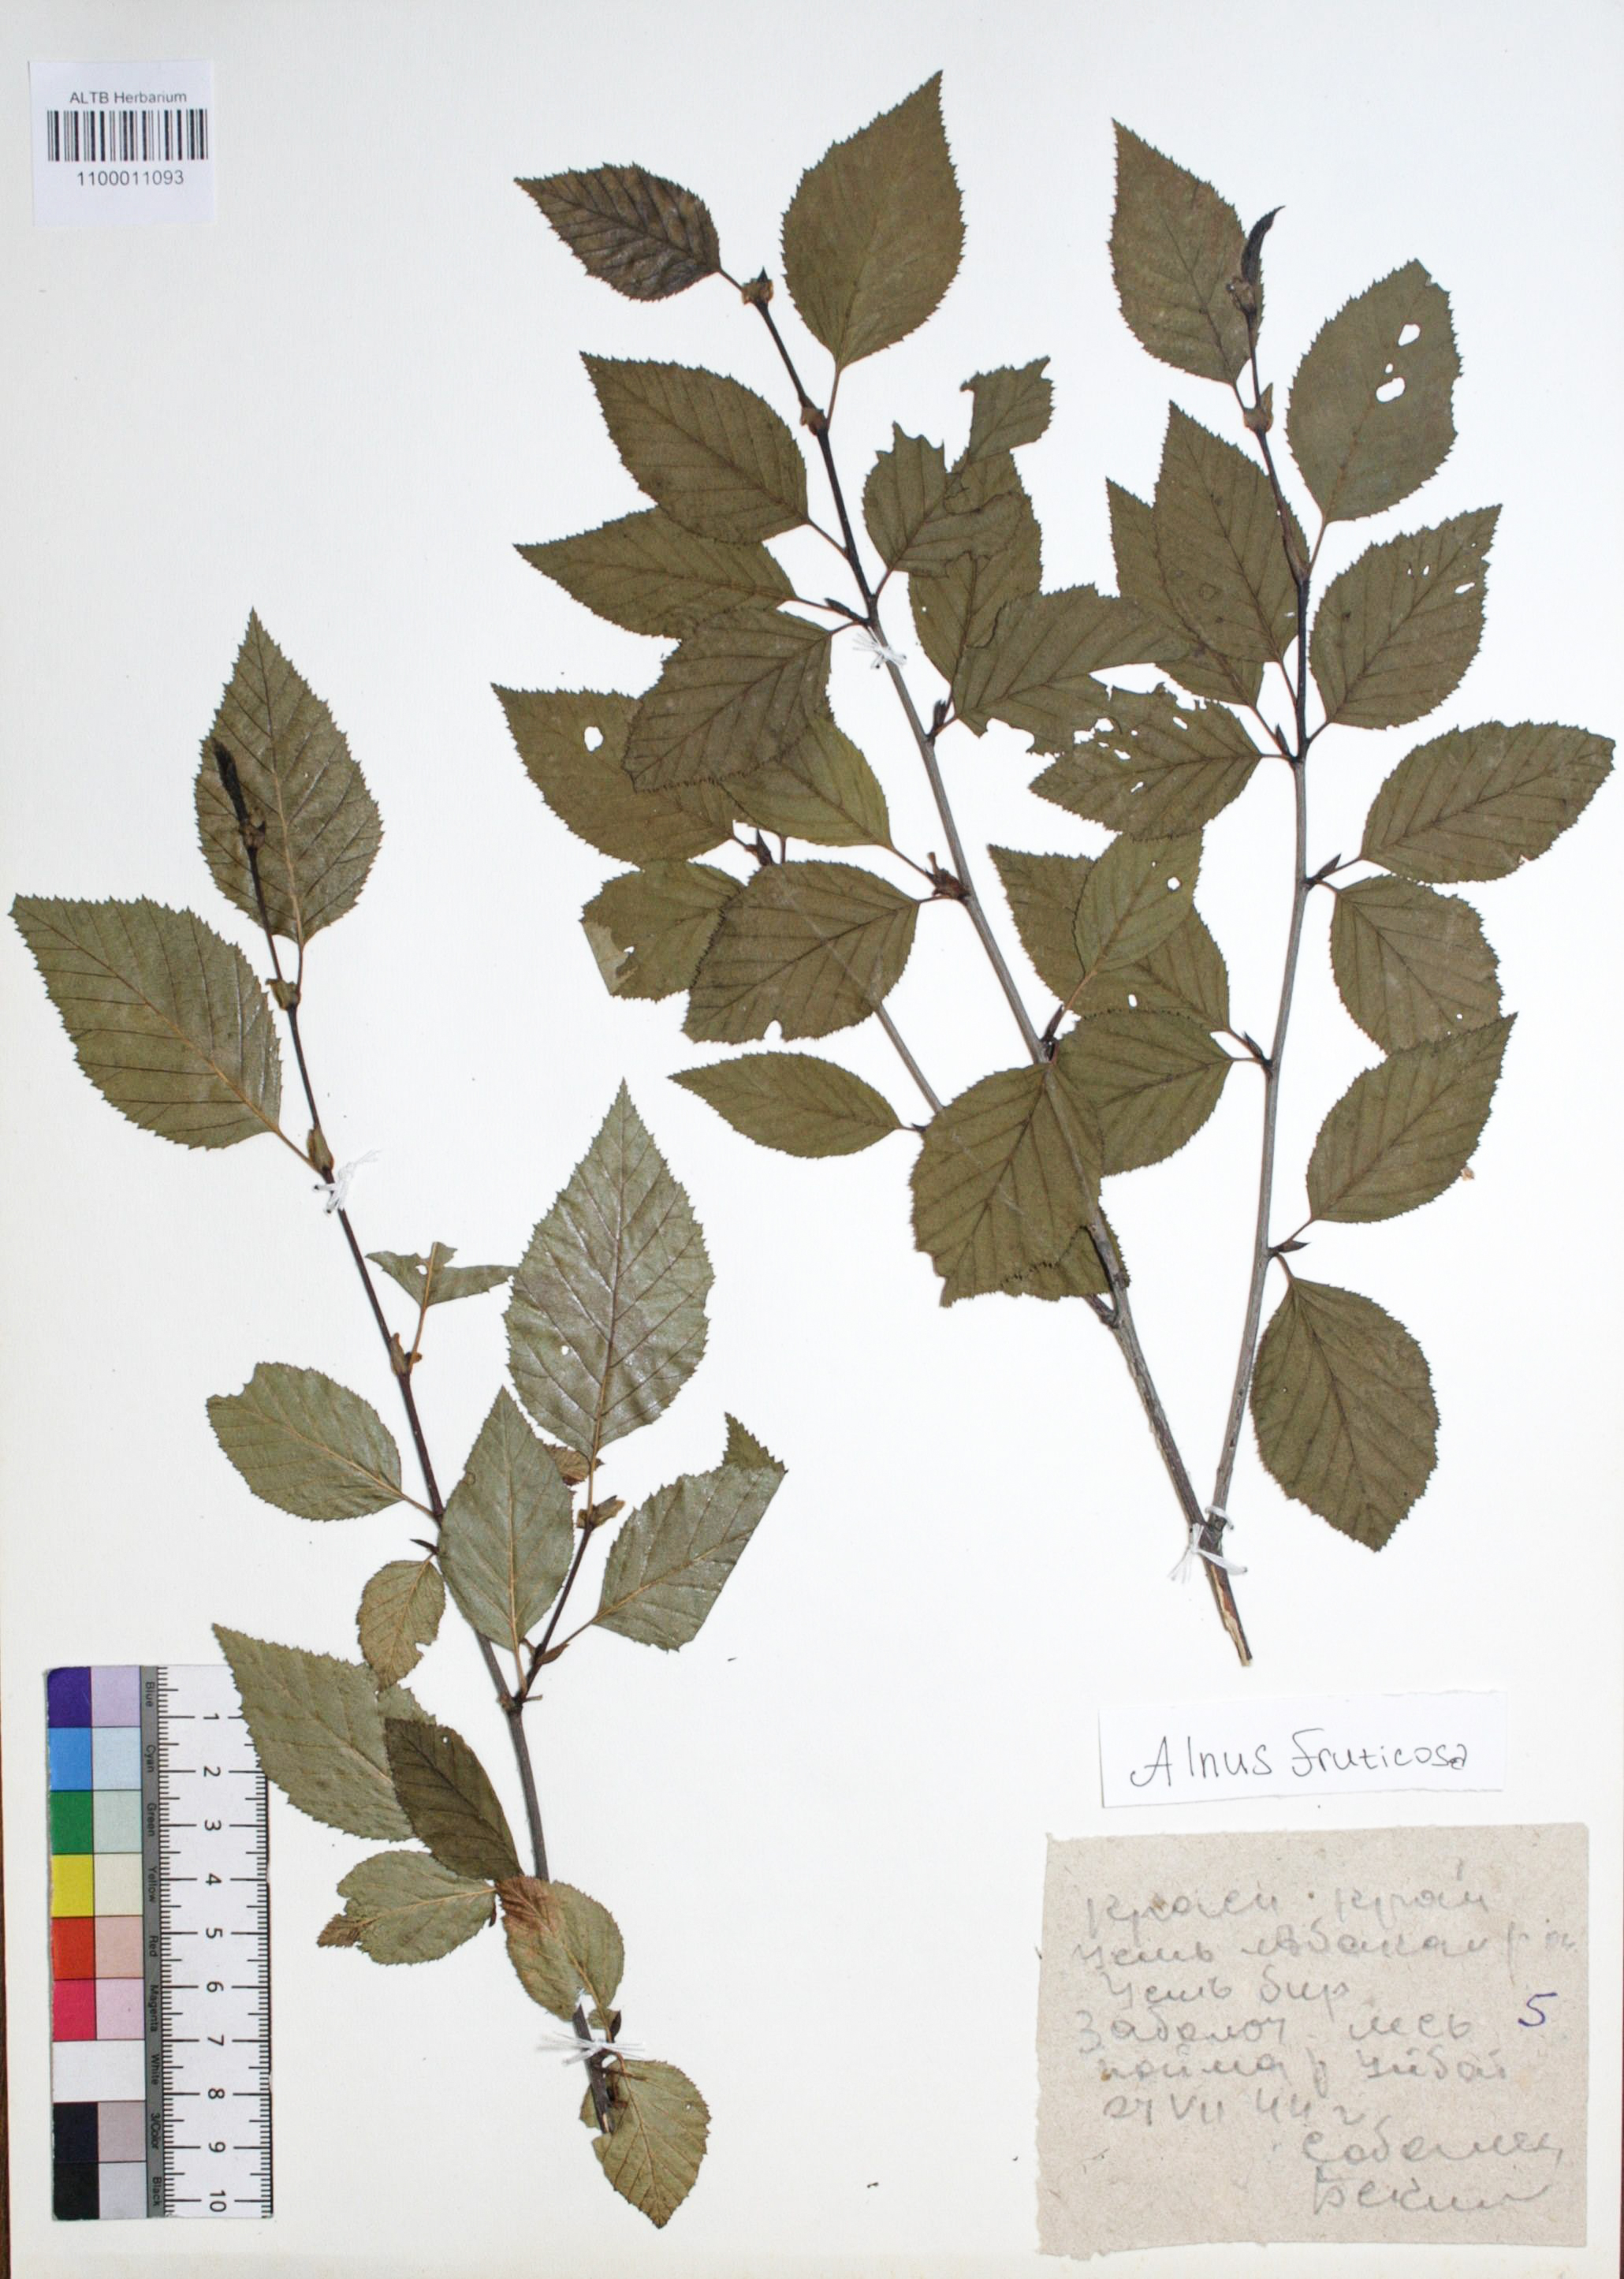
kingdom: Plantae
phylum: Tracheophyta
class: Magnoliopsida
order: Fagales
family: Betulaceae
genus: Alnus
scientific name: Alnus alnobetula
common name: Green alder
